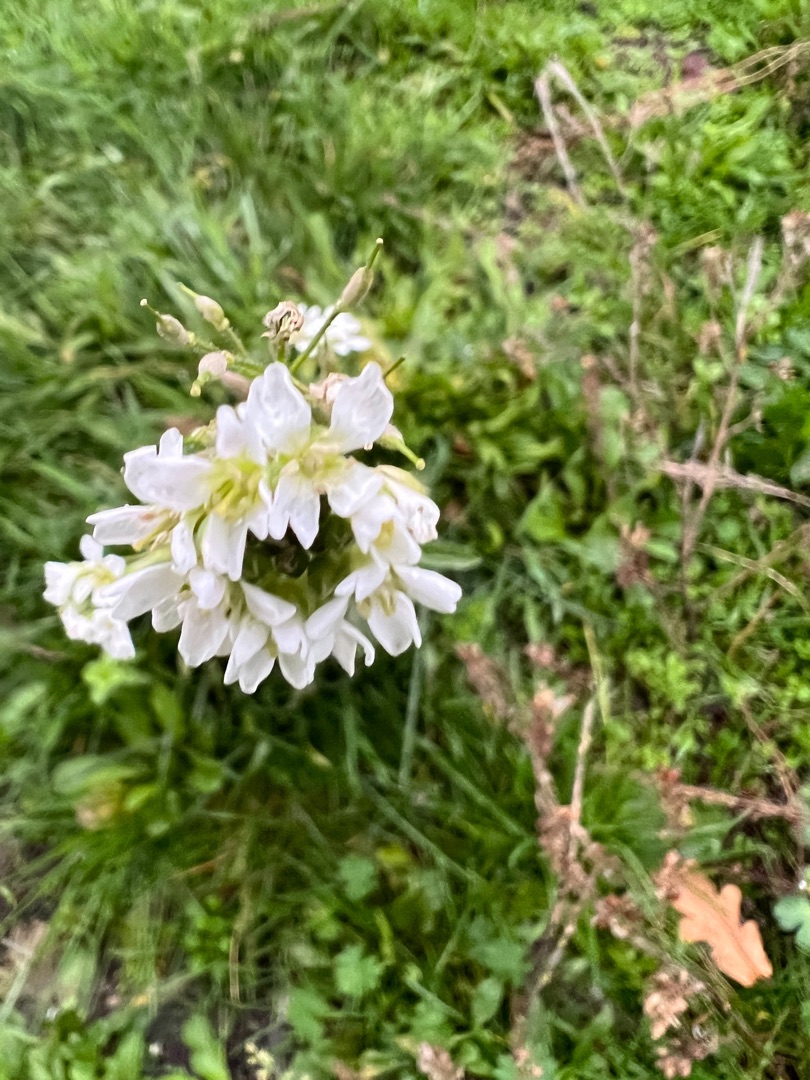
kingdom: Plantae
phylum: Tracheophyta
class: Magnoliopsida
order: Brassicales
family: Brassicaceae
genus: Berteroa
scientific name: Berteroa incana
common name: Kløvplade
